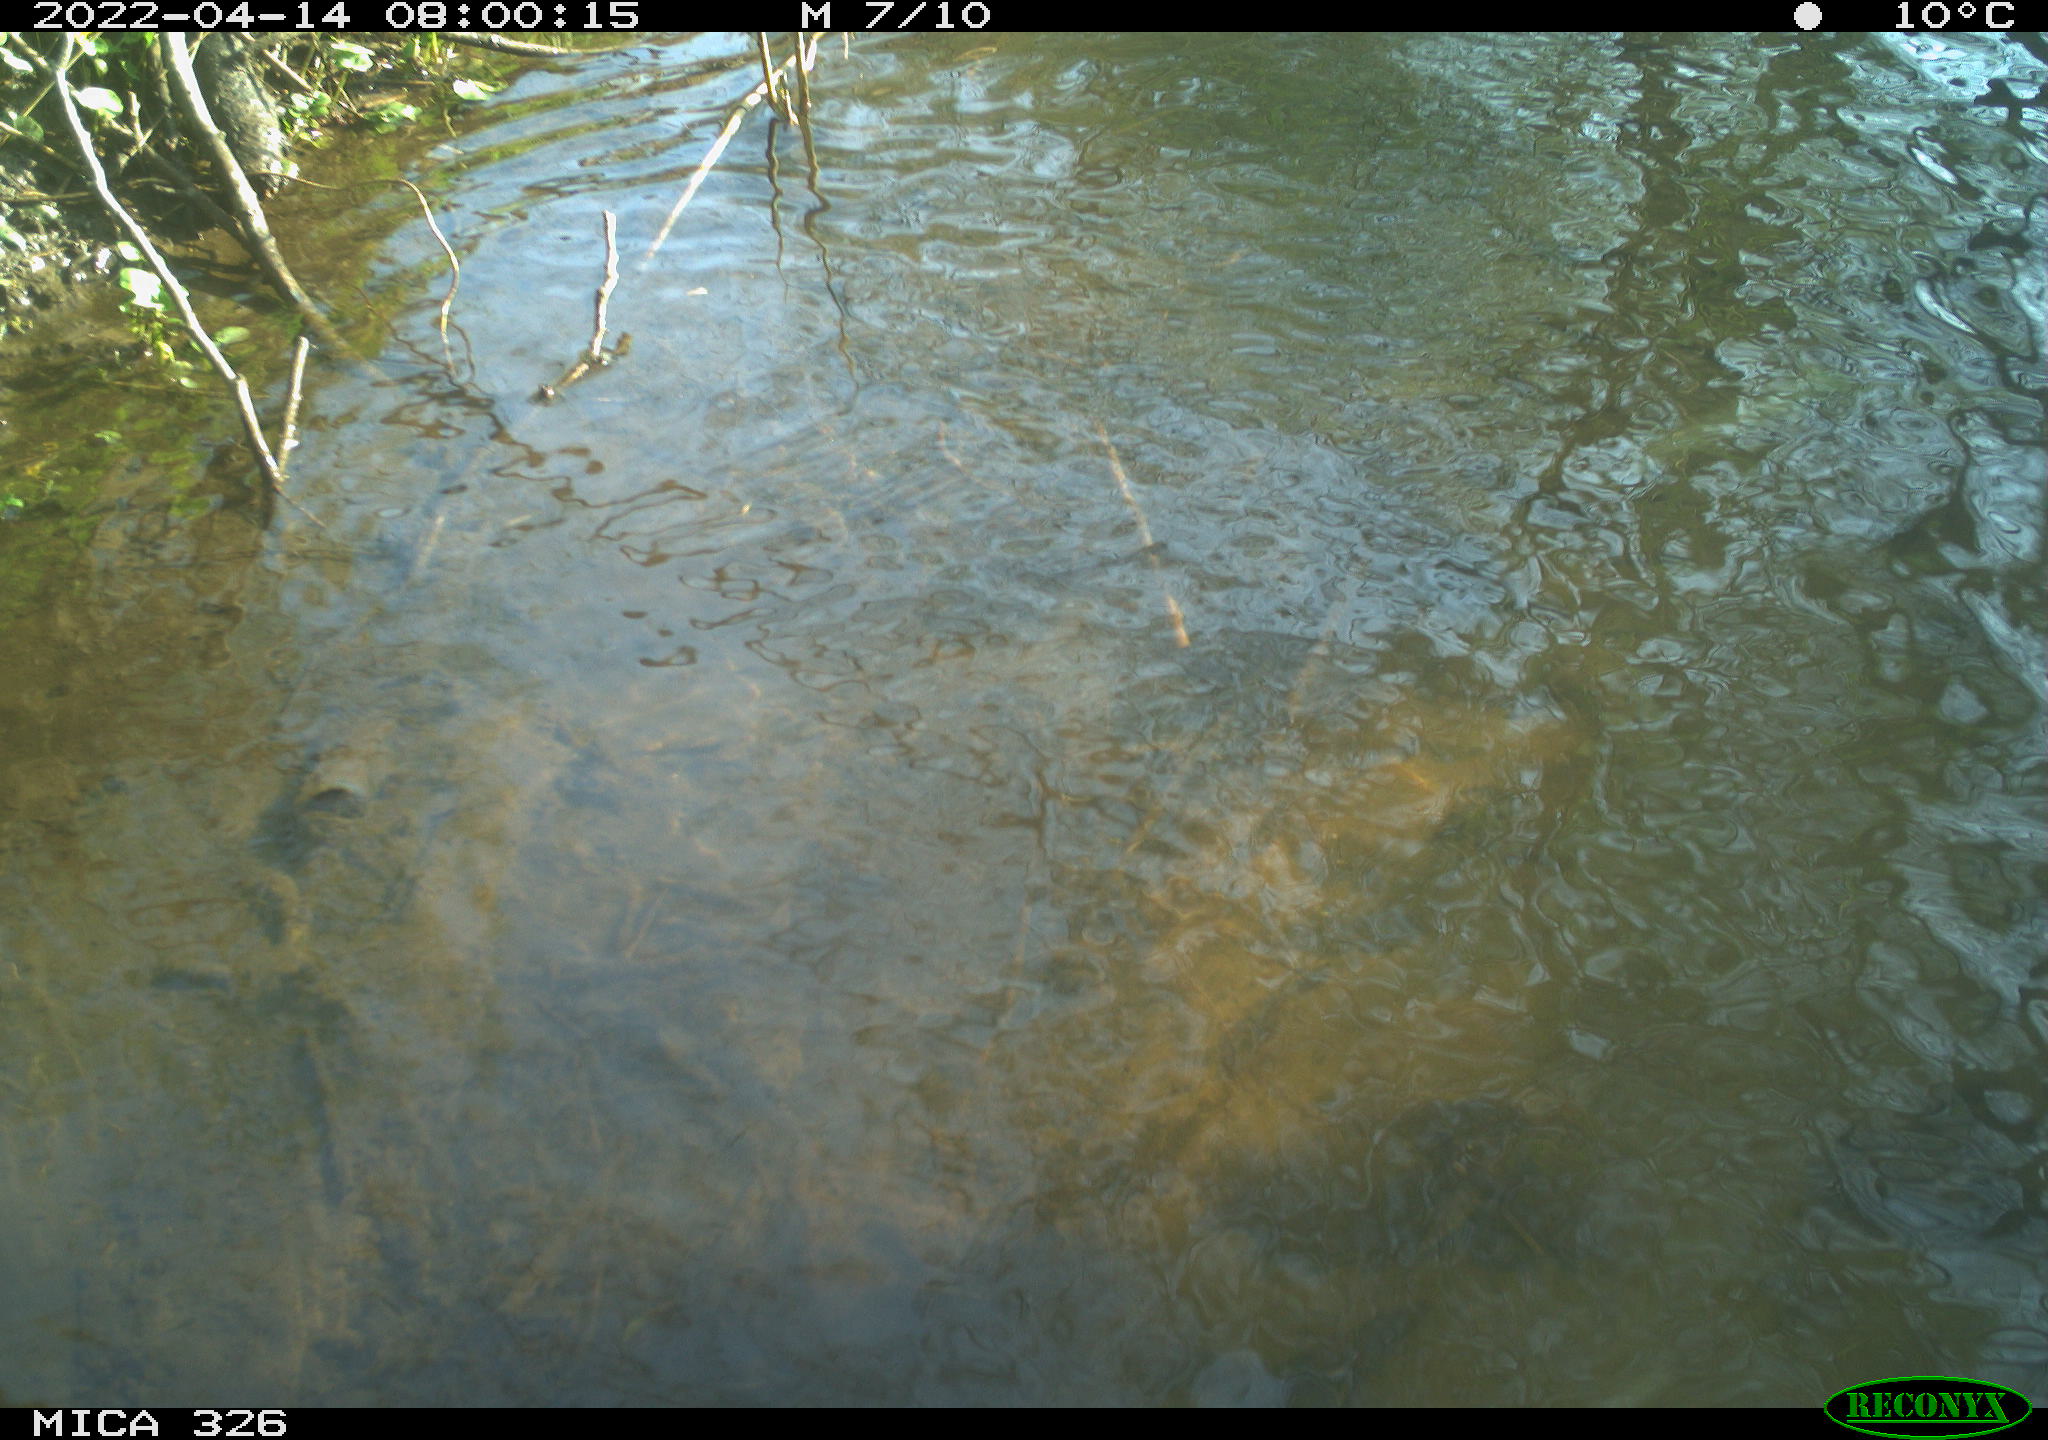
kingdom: Animalia
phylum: Chordata
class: Mammalia
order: Rodentia
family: Cricetidae
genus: Ondatra
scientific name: Ondatra zibethicus
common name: Muskrat
